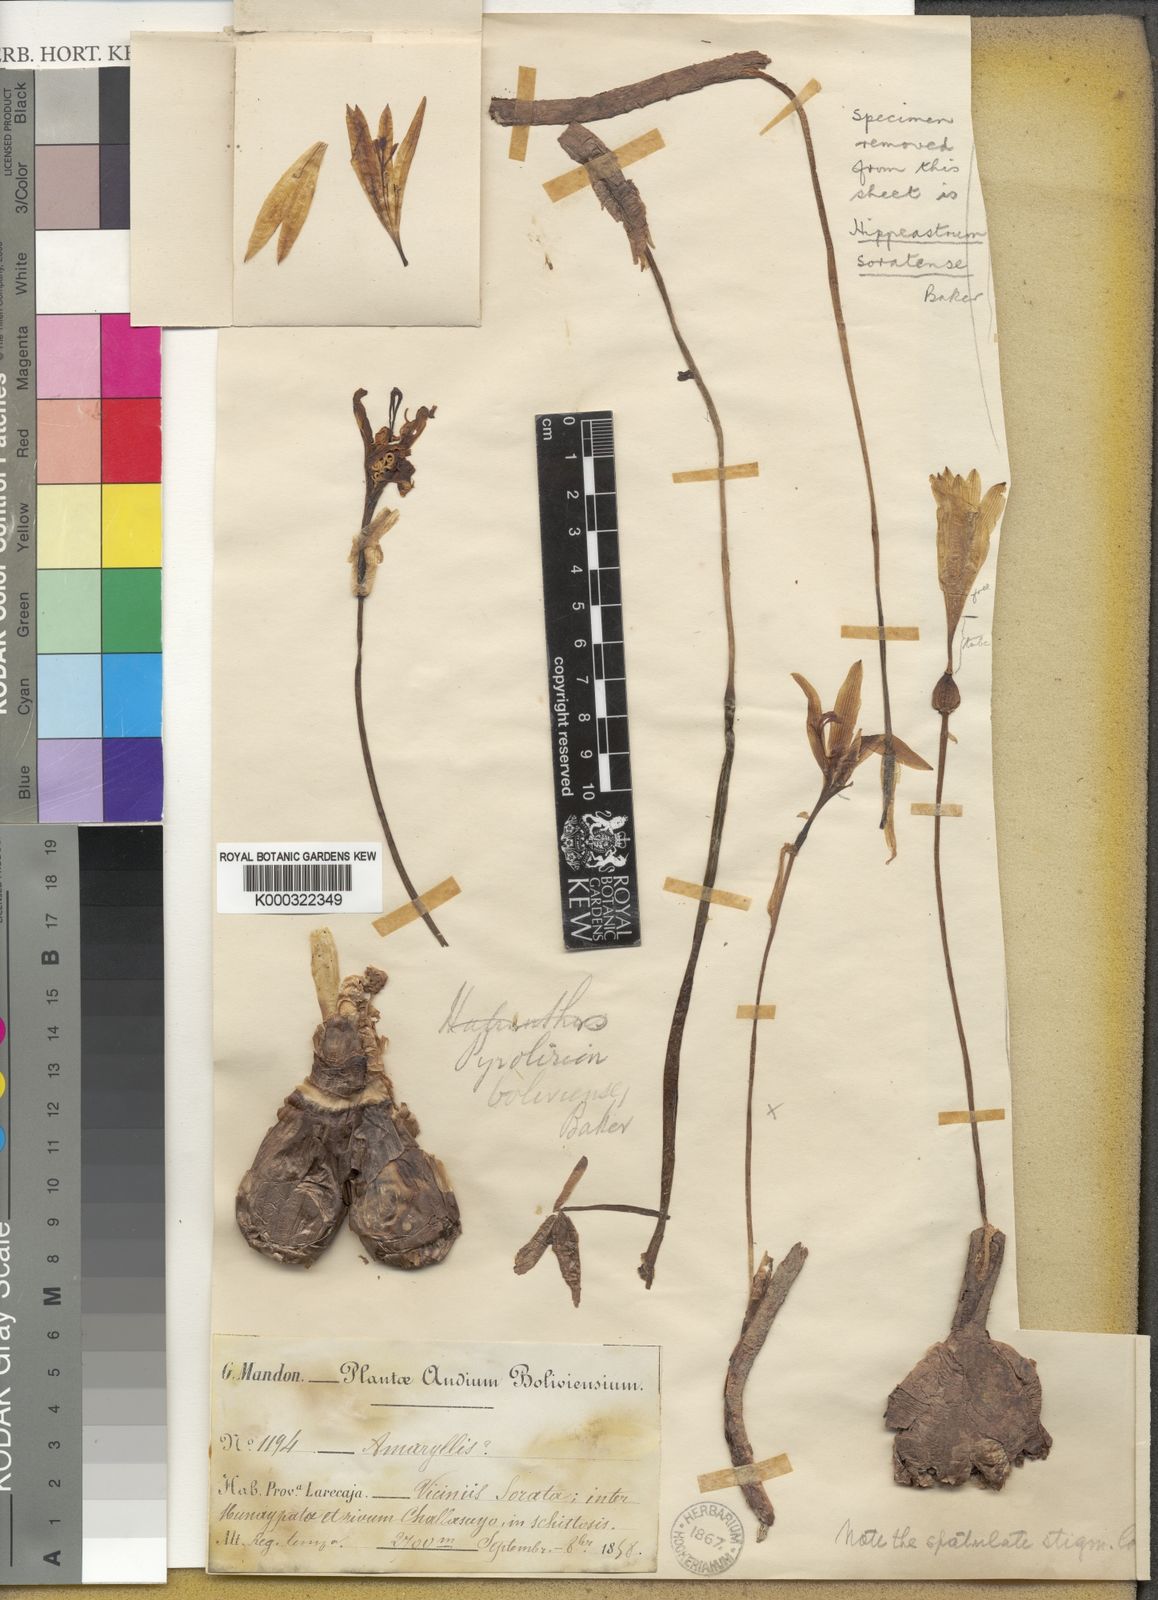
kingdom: Plantae
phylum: Tracheophyta
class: Liliopsida
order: Asparagales
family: Amaryllidaceae
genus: Zephyranthes
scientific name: Zephyranthes
